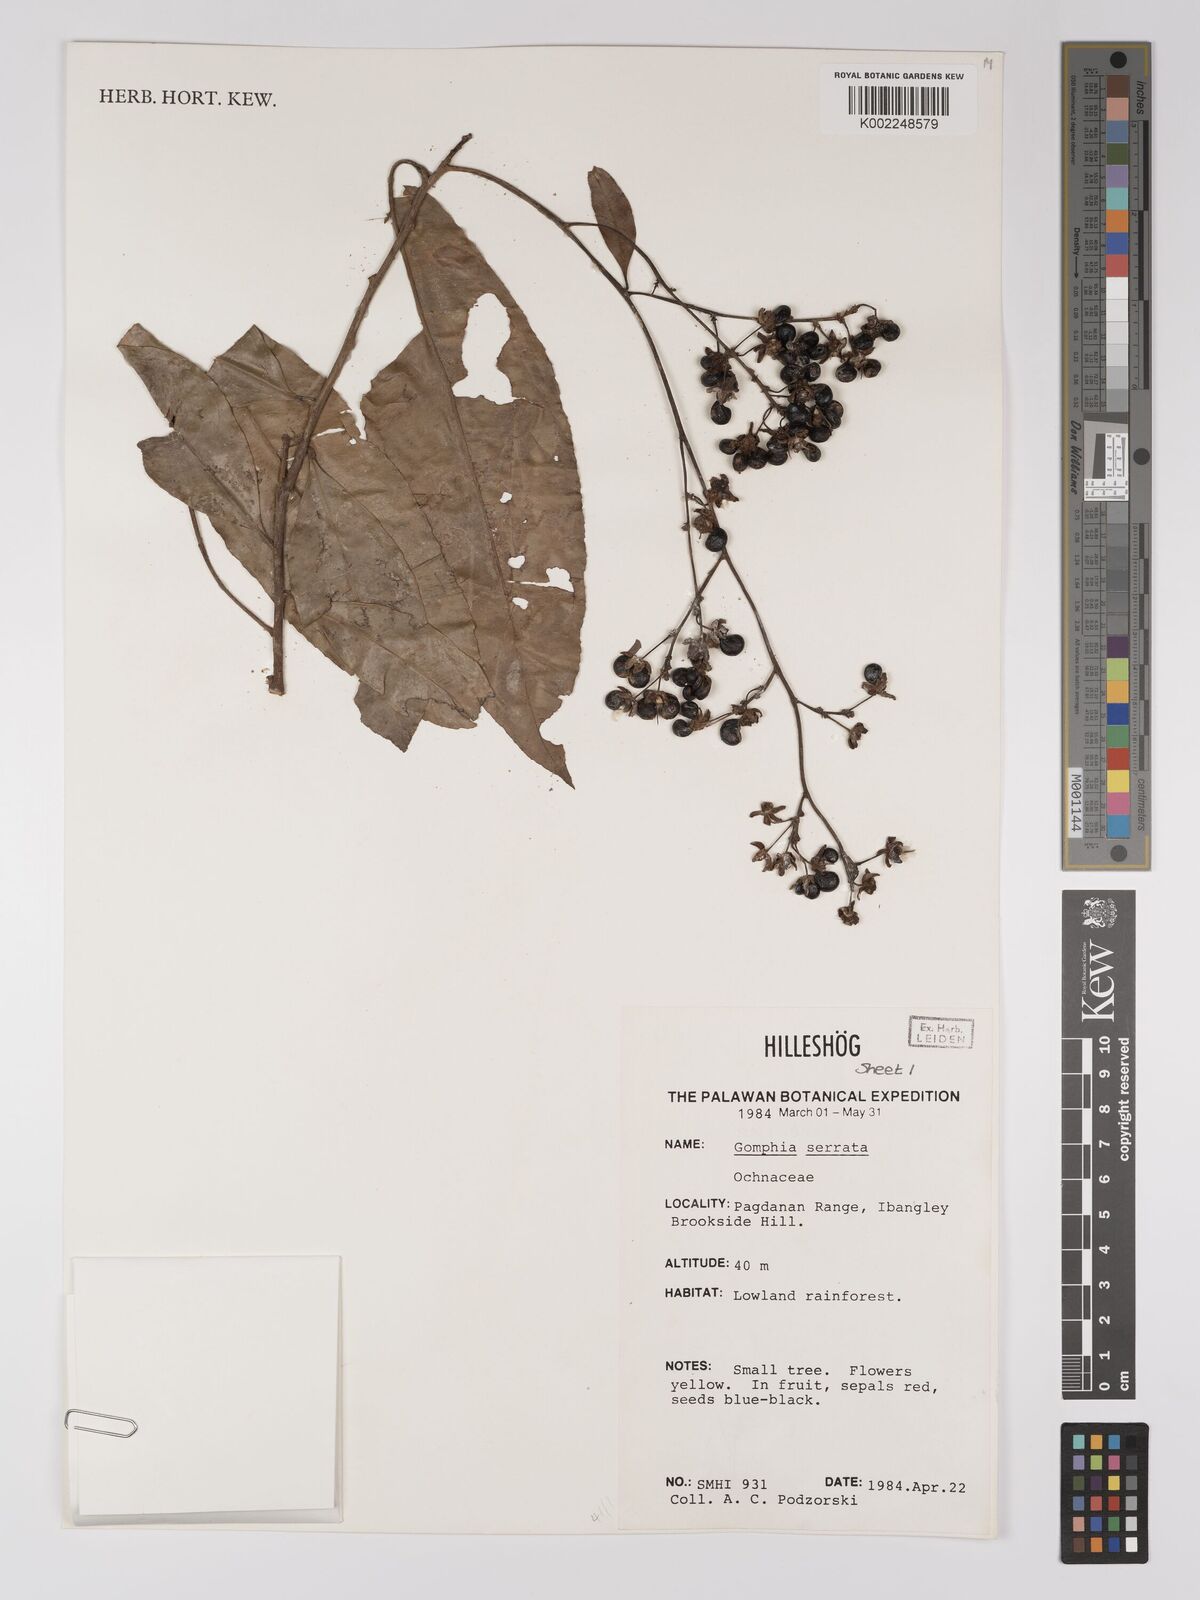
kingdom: Plantae
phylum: Tracheophyta
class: Magnoliopsida
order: Malpighiales
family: Ochnaceae
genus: Gomphia
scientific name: Gomphia serrata
